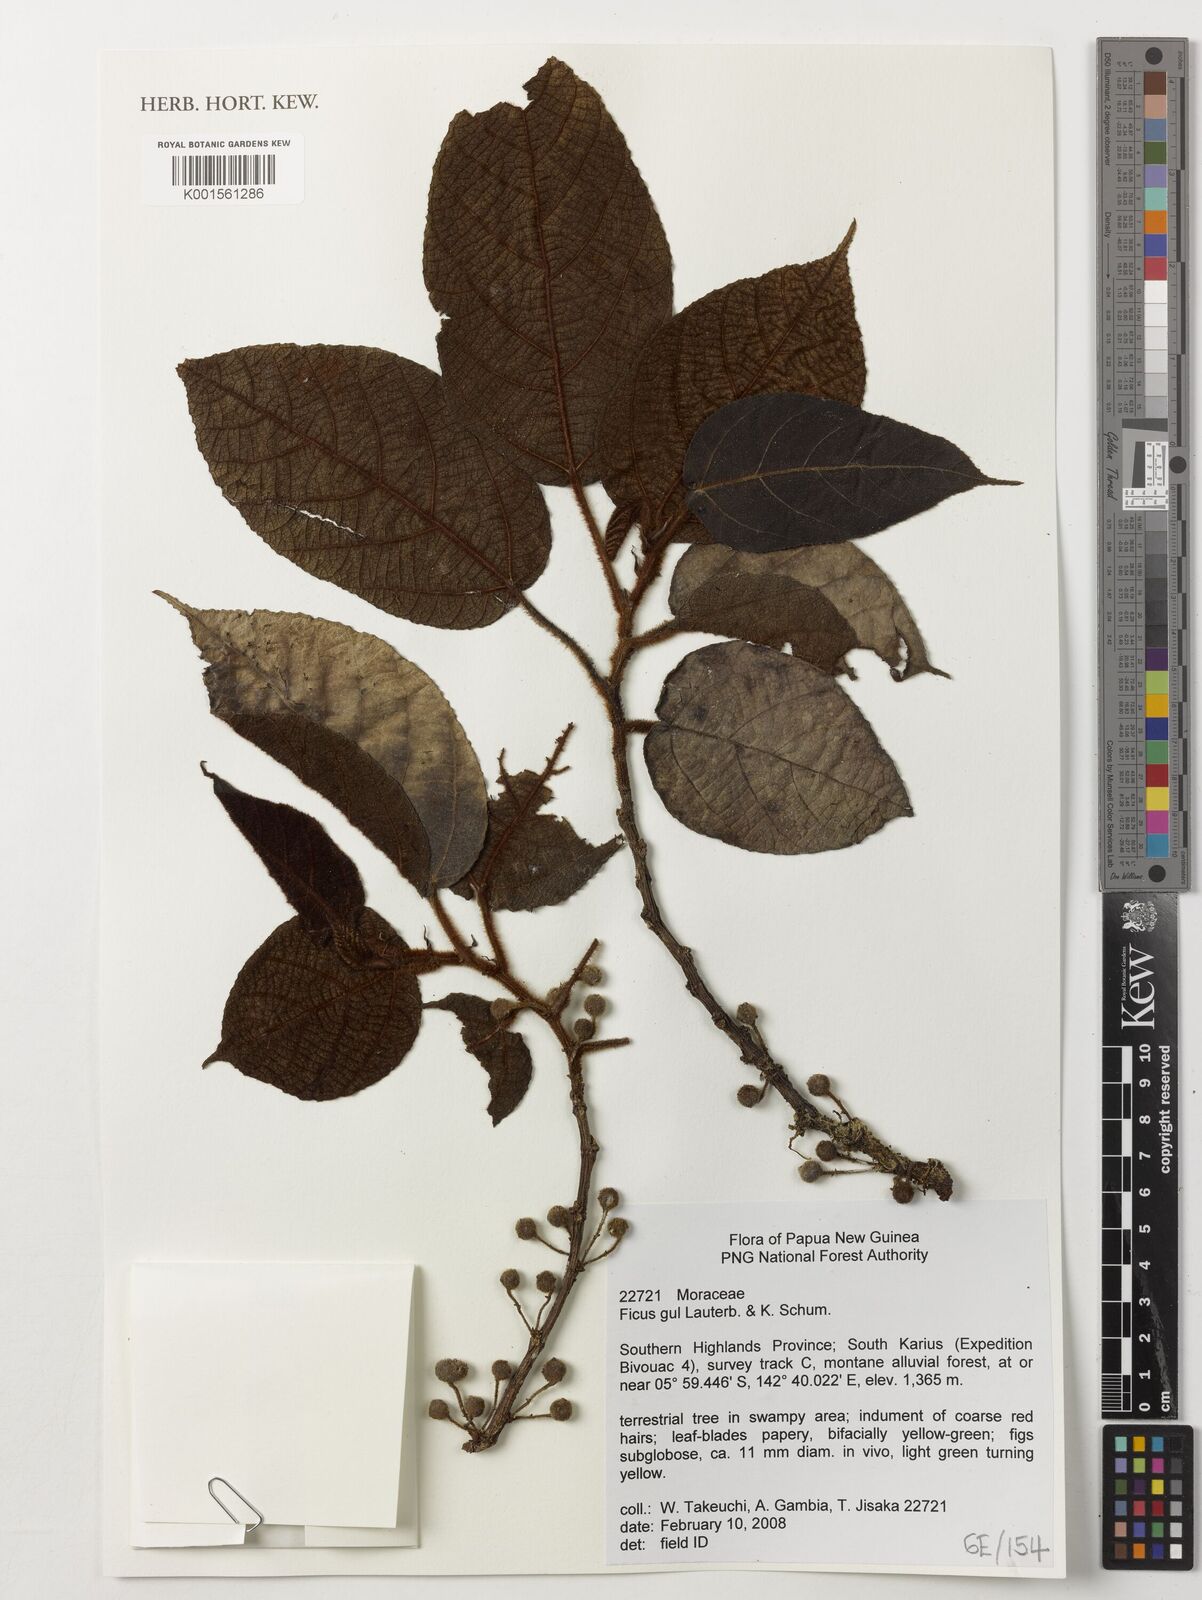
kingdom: Plantae
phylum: Tracheophyta
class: Magnoliopsida
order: Rosales
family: Moraceae
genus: Ficus
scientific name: Ficus gul
